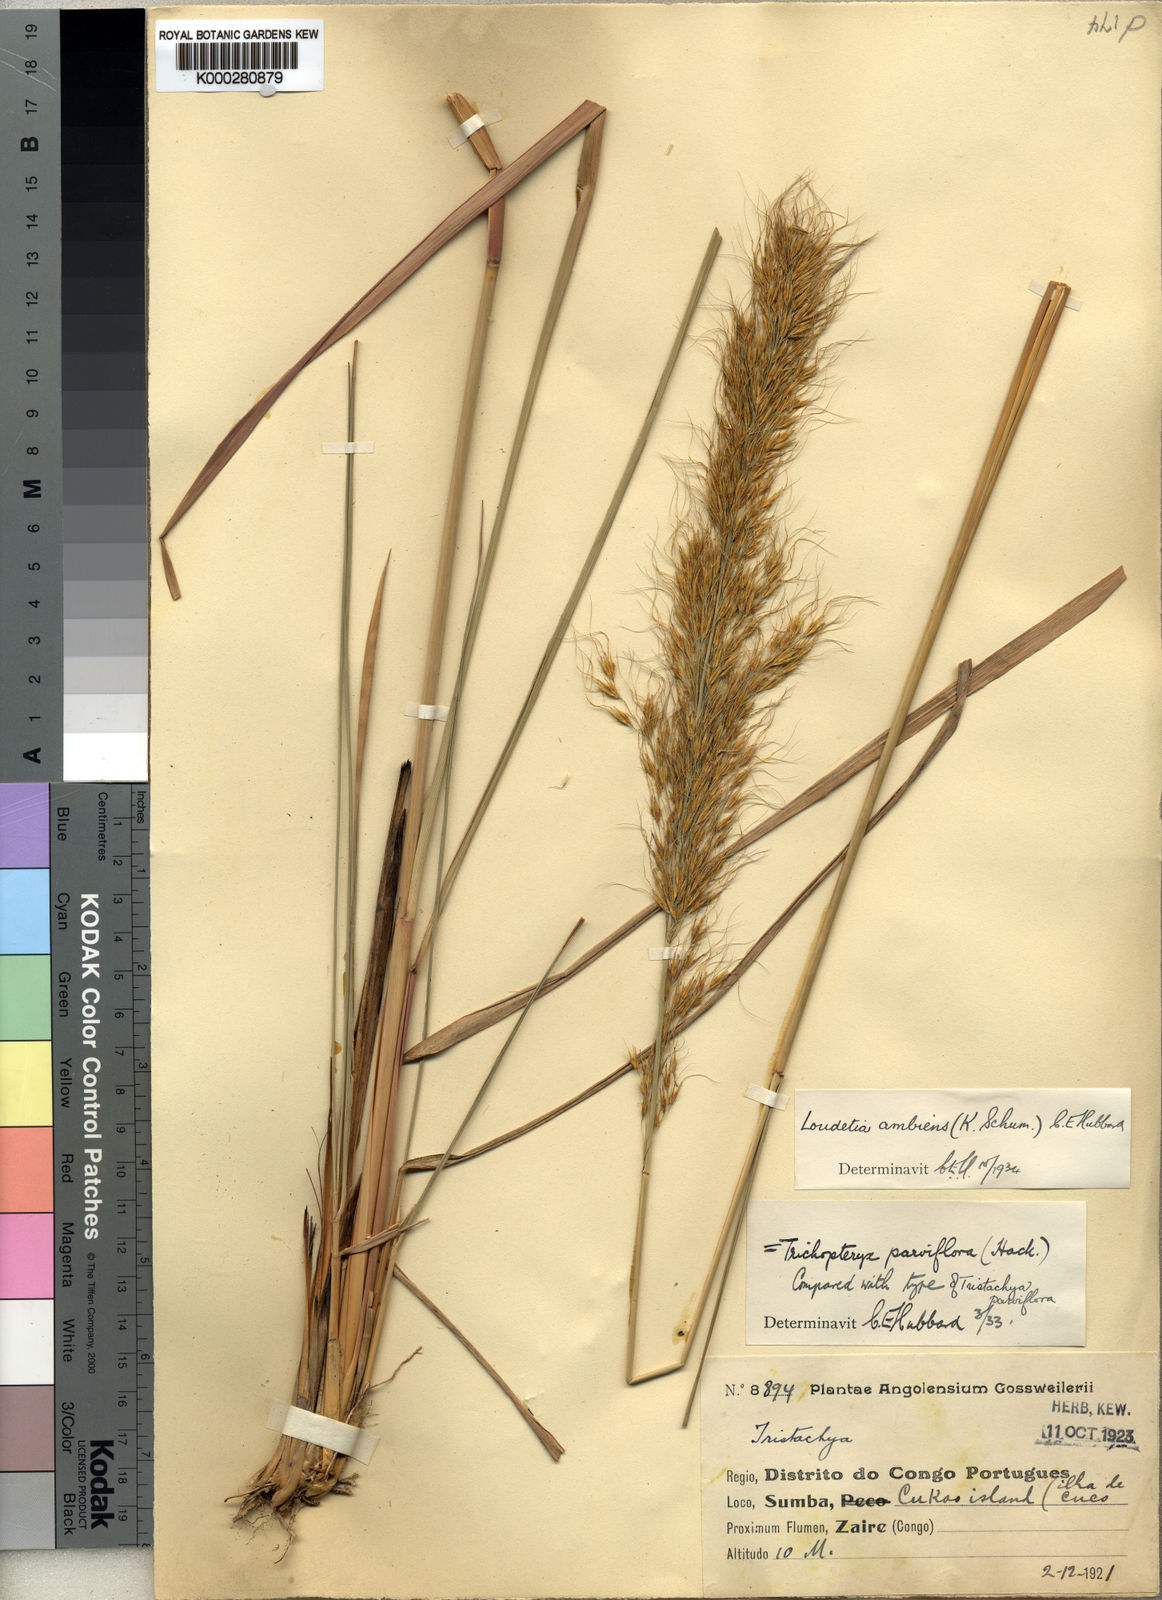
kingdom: Plantae
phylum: Tracheophyta
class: Liliopsida
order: Poales
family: Poaceae
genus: Loudetiopsis
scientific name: Loudetiopsis ambiens
